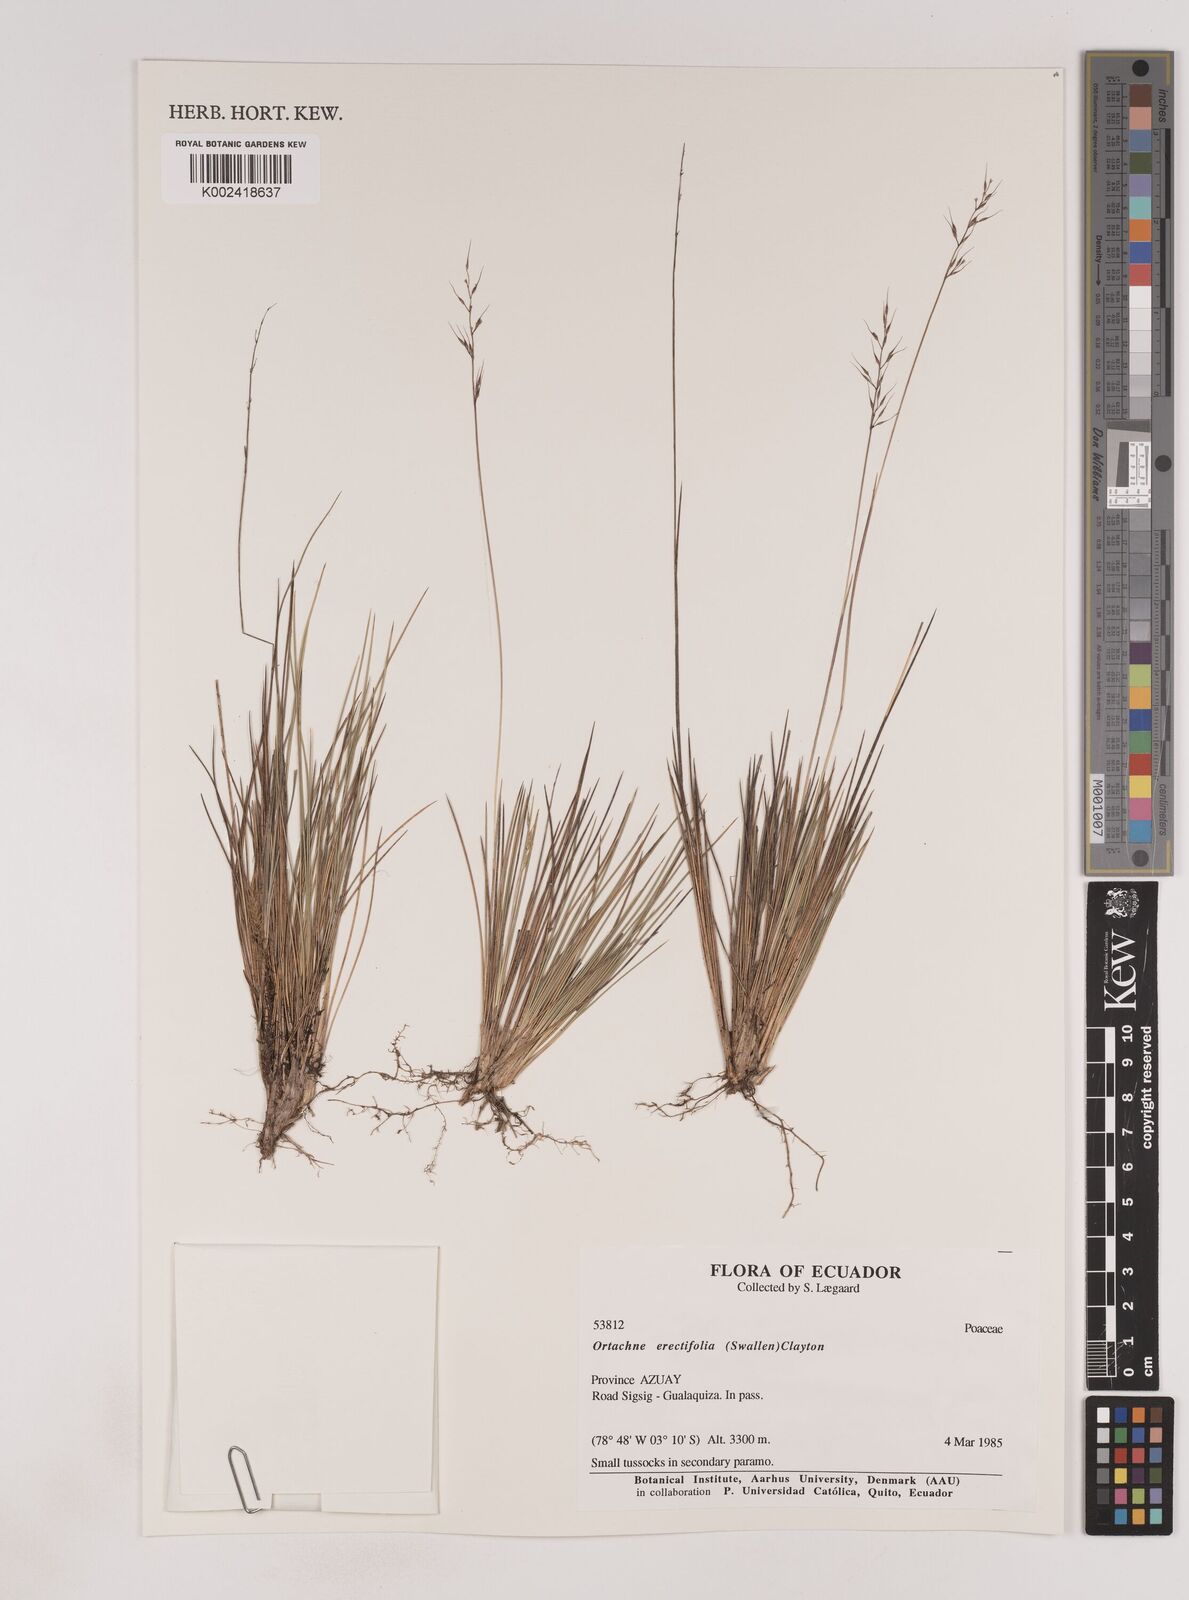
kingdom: Plantae
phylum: Tracheophyta
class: Liliopsida
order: Poales
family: Poaceae
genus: Lorenzochloa
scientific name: Lorenzochloa erectifolia
